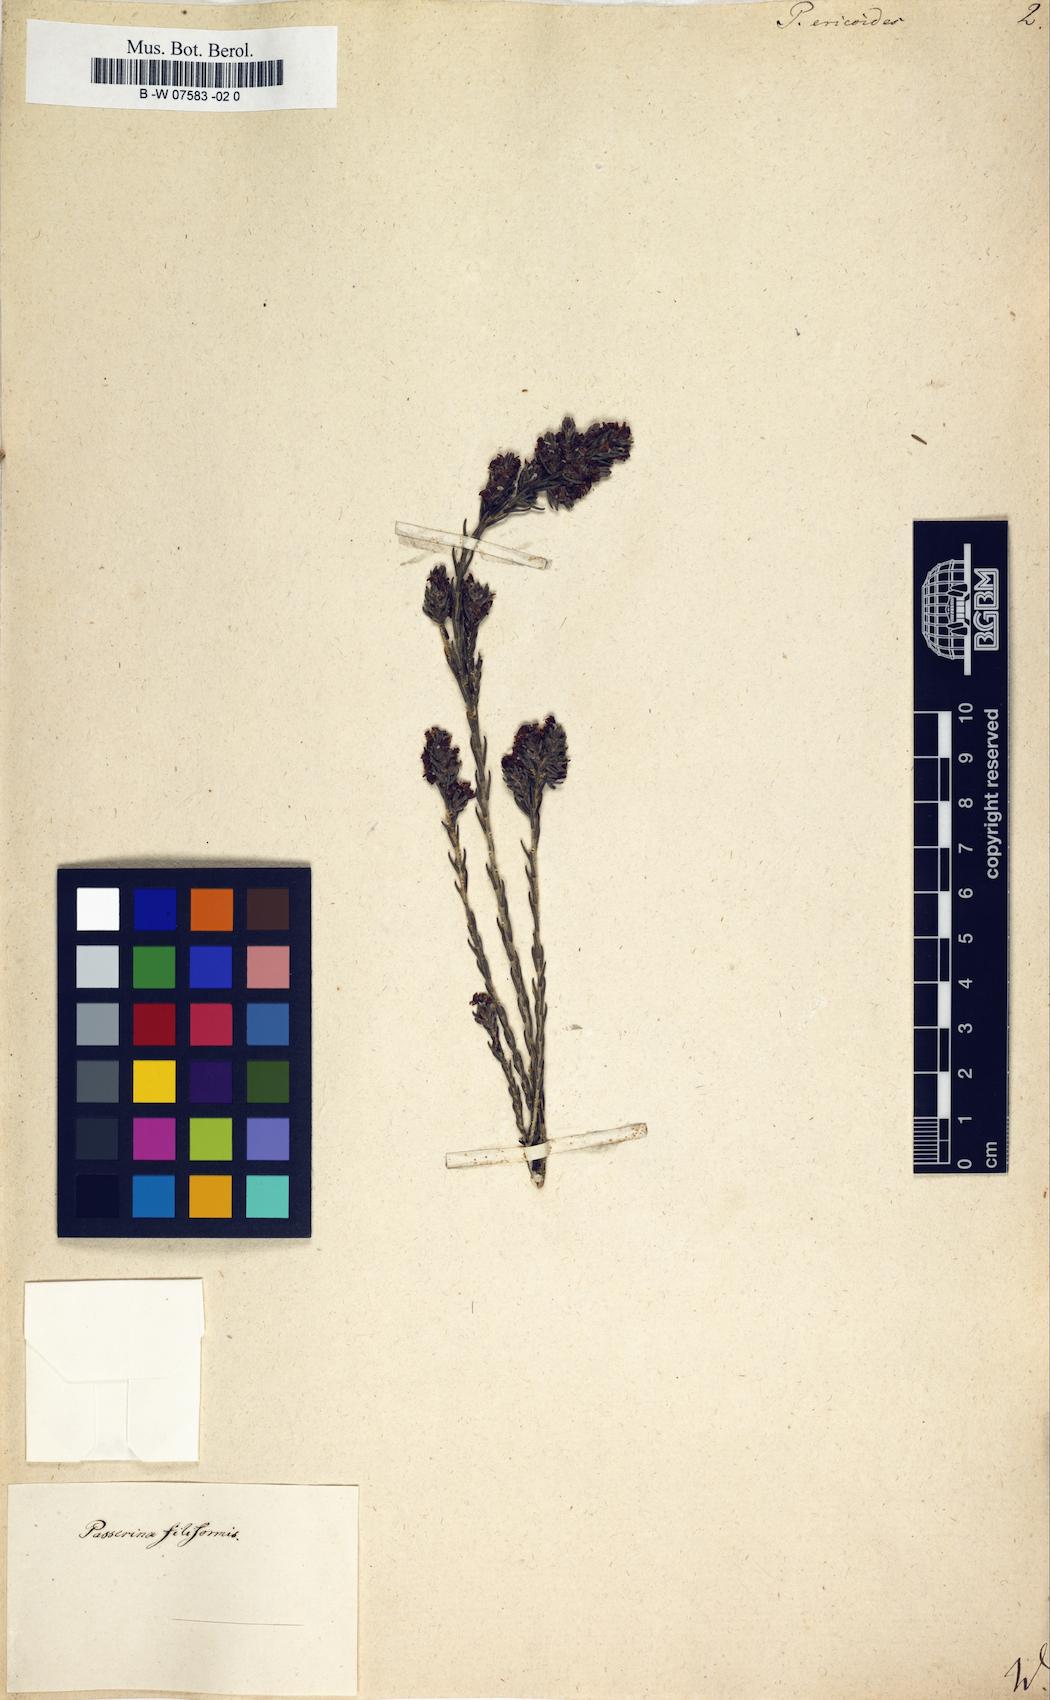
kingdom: Plantae
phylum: Tracheophyta
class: Magnoliopsida
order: Malvales
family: Thymelaeaceae
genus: Passerina
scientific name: Passerina ericoides
